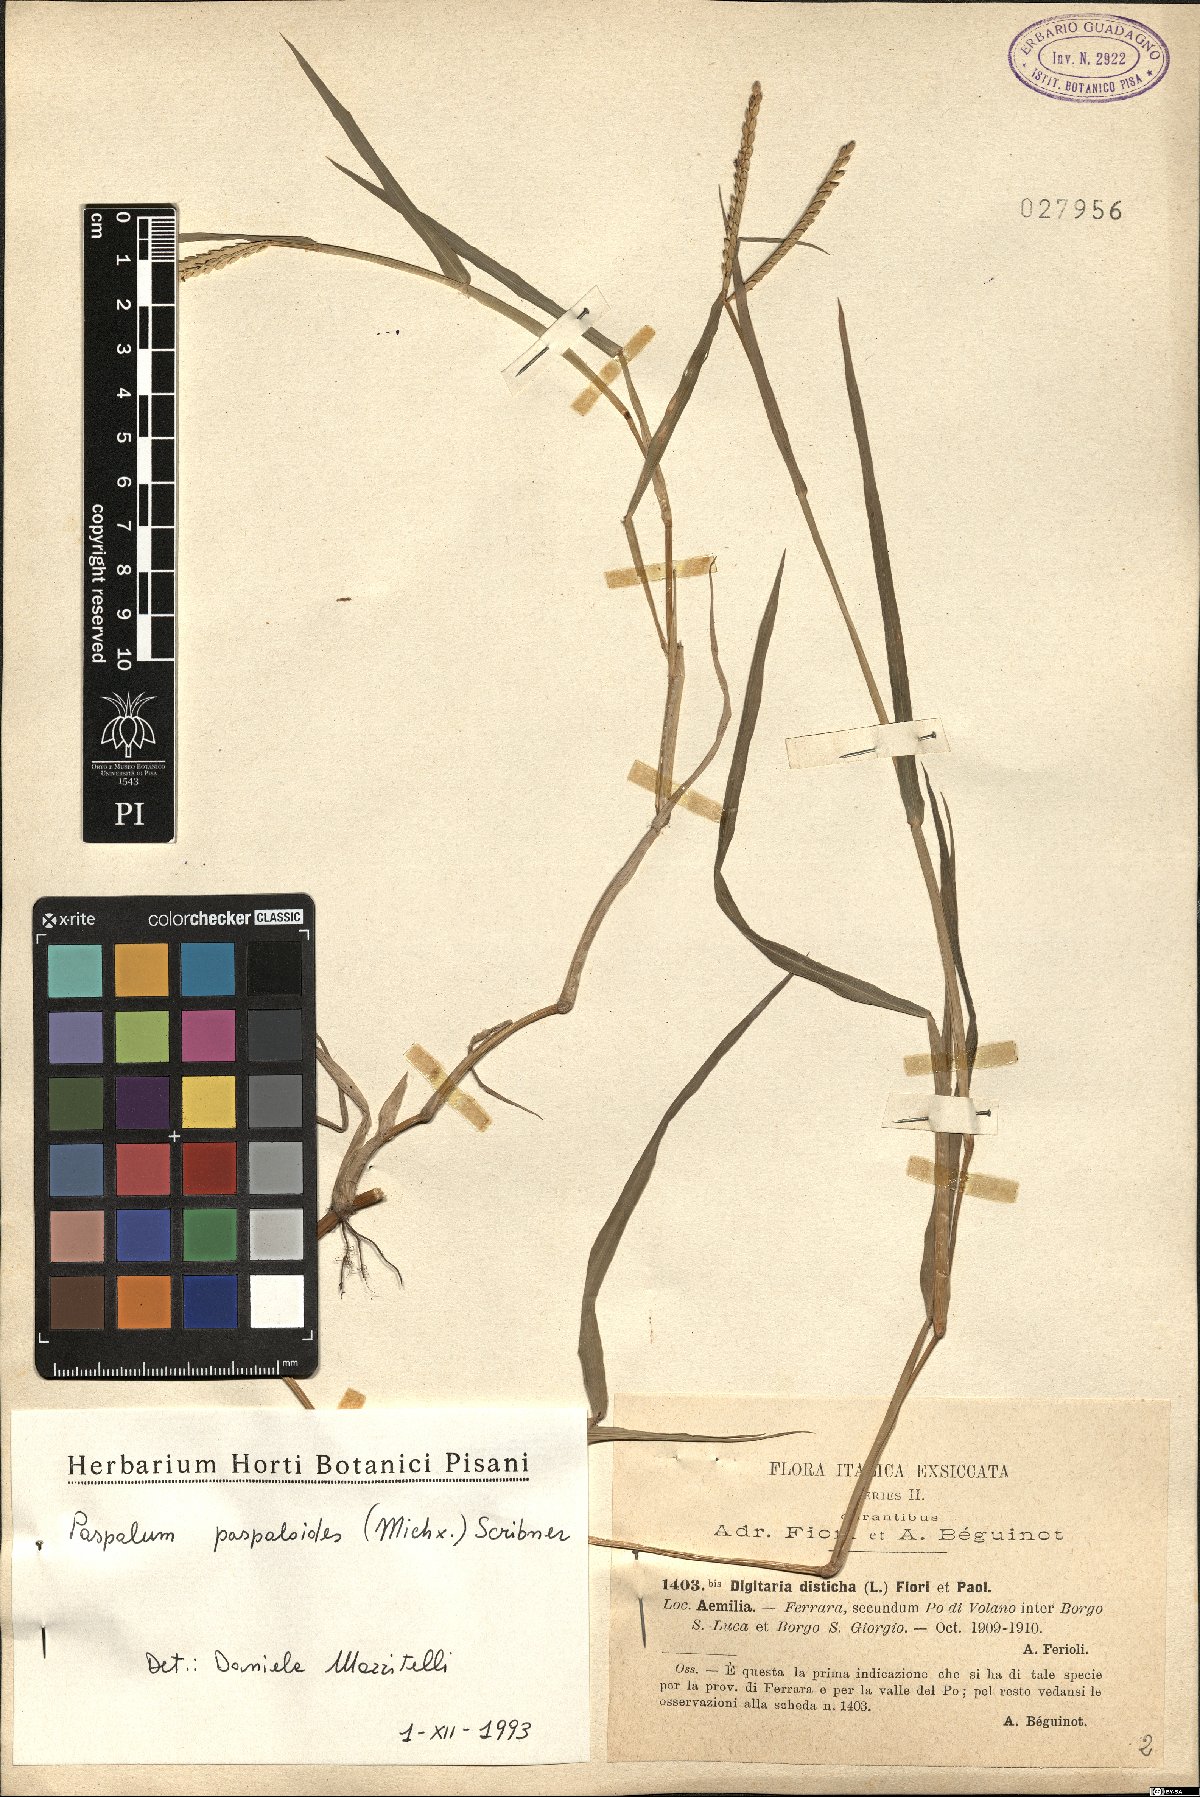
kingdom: Plantae
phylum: Tracheophyta
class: Liliopsida
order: Poales
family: Poaceae
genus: Paspalum
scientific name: Paspalum distichum
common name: Knotgrass
